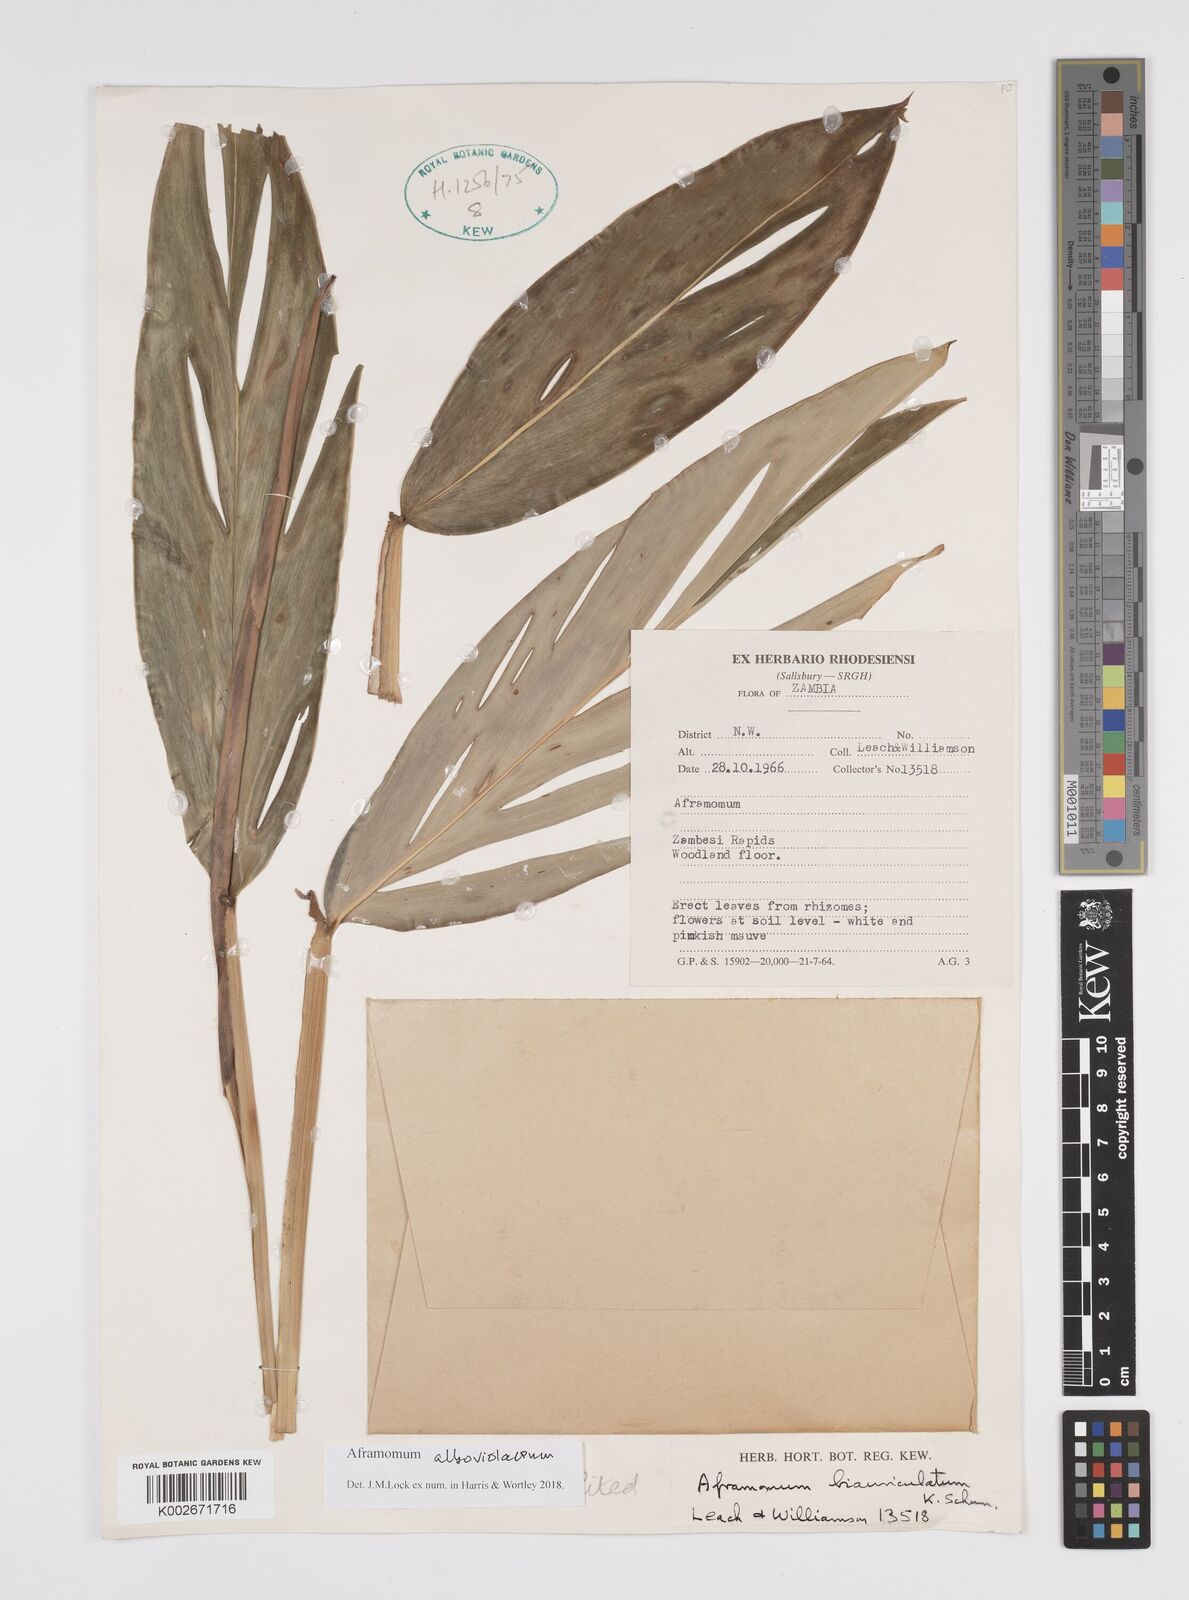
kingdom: Plantae
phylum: Tracheophyta
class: Liliopsida
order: Zingiberales
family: Zingiberaceae
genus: Aframomum
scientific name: Aframomum alboviolaceum
